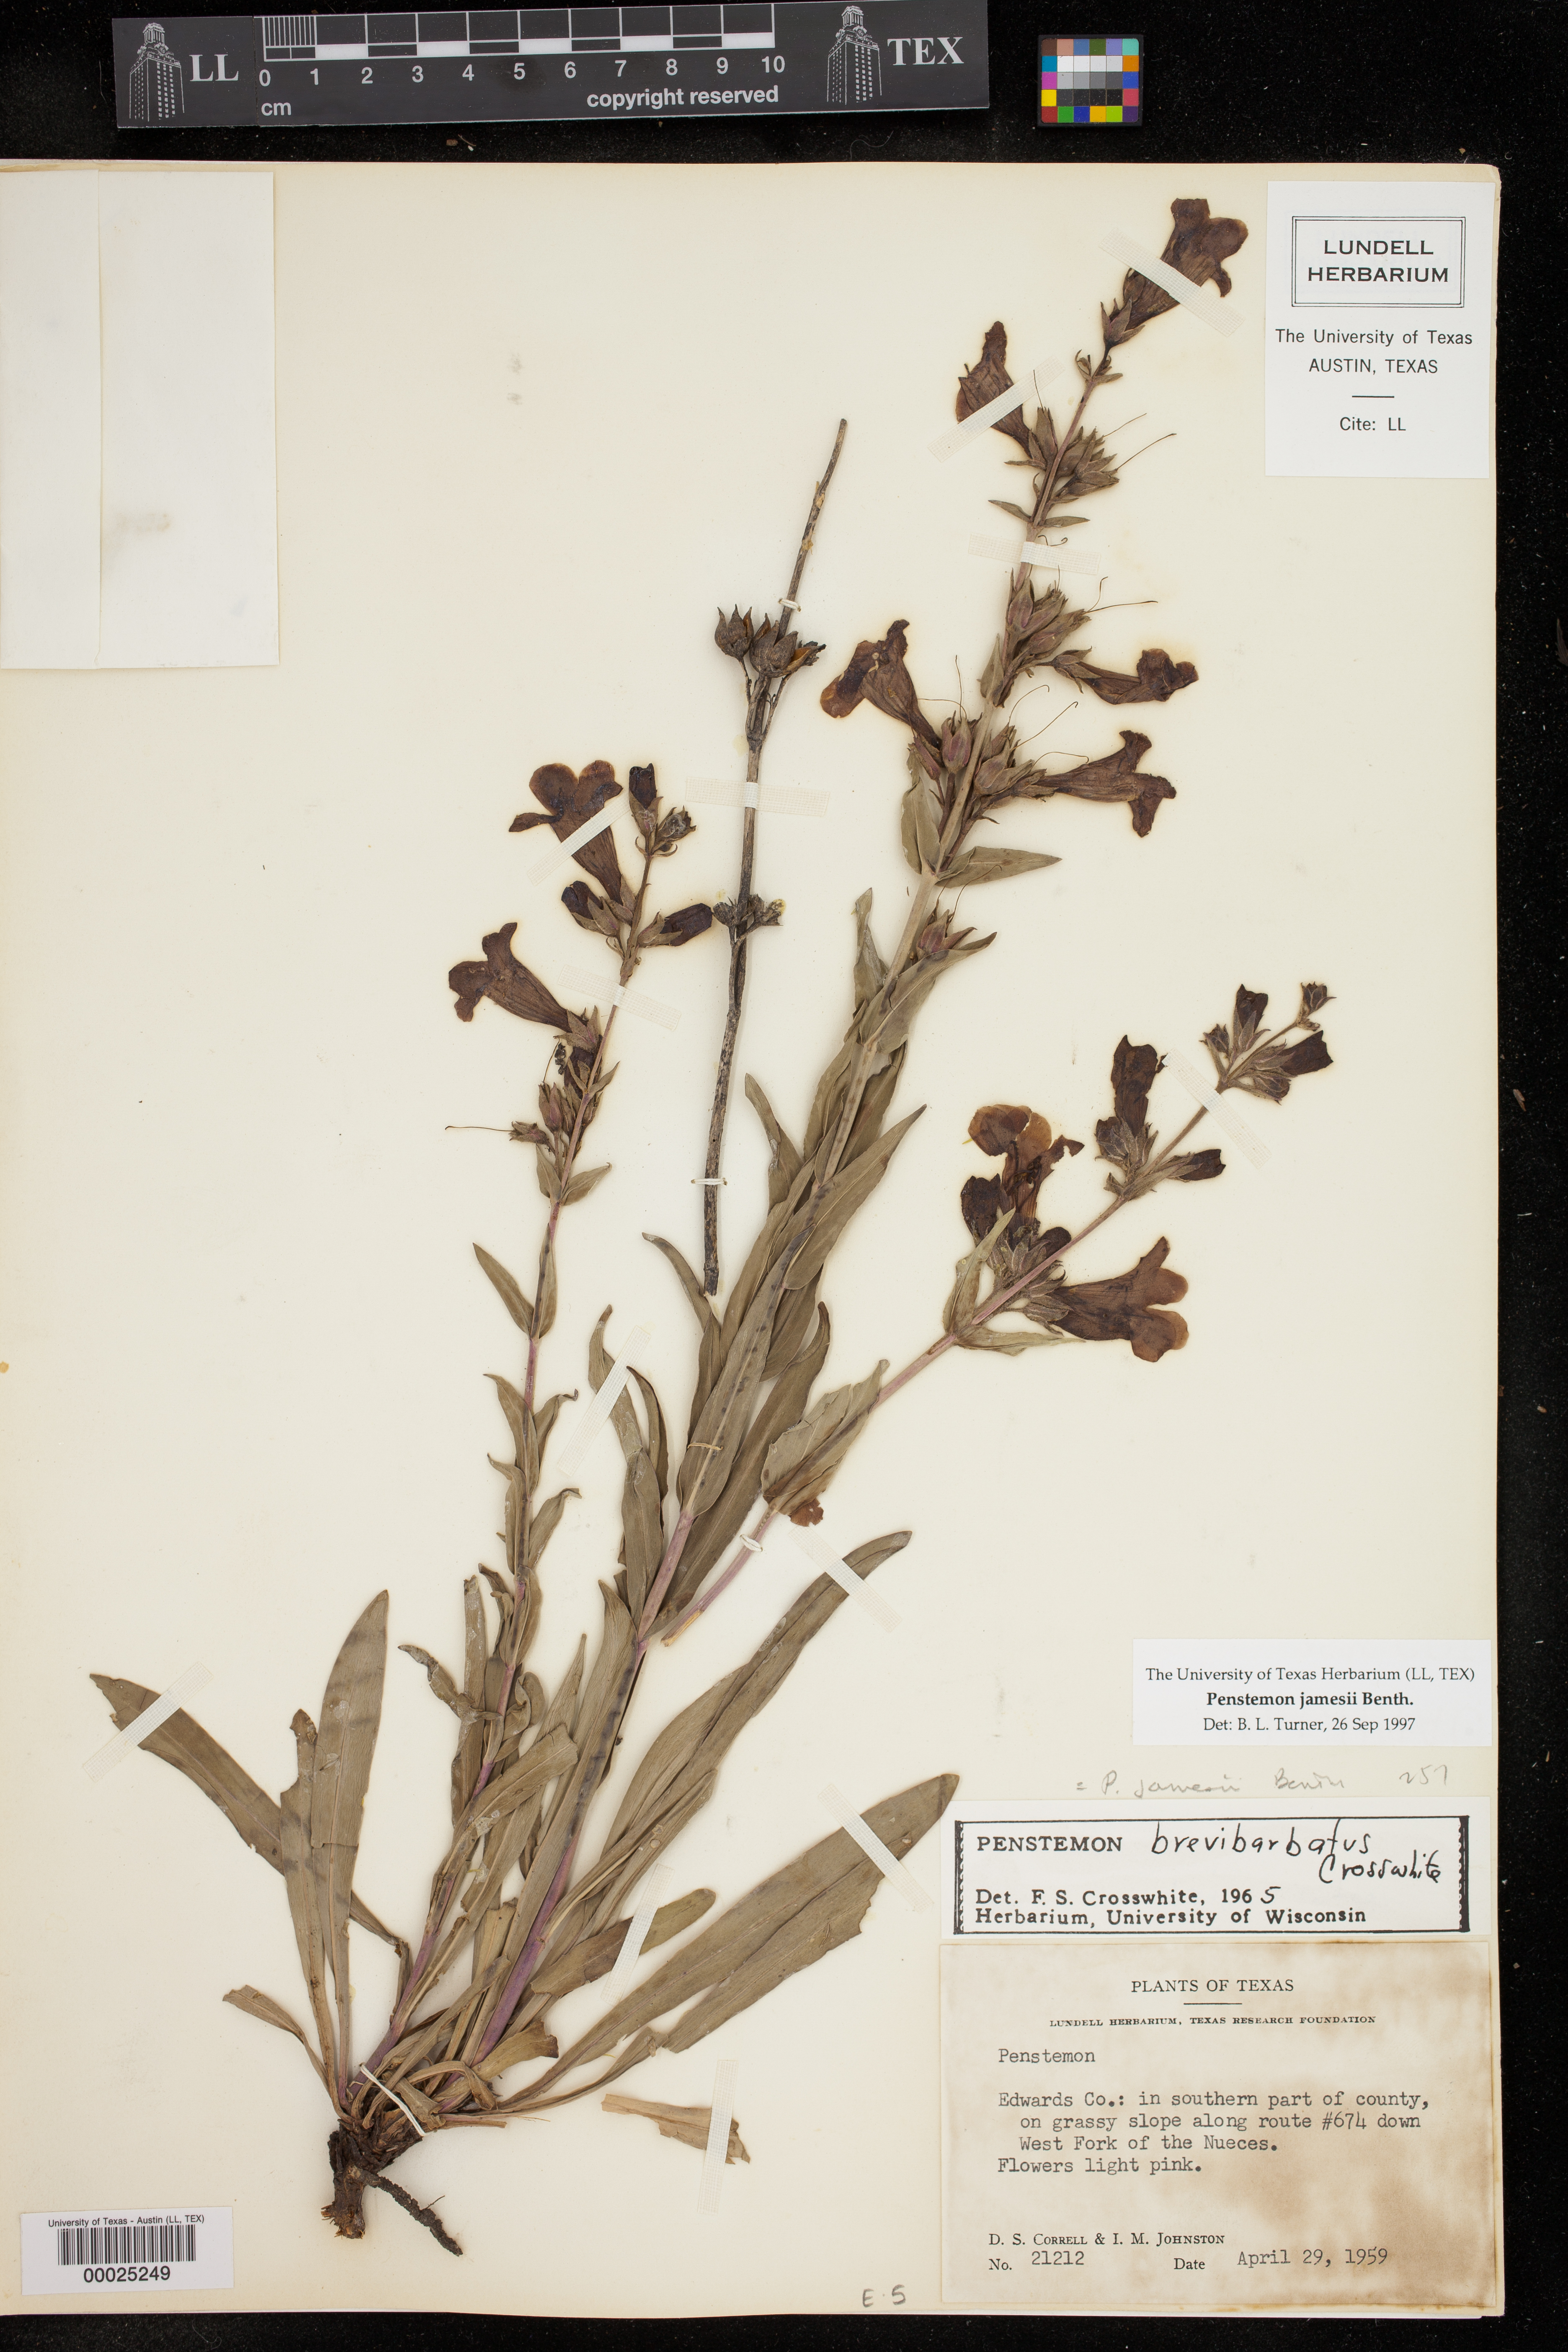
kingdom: Plantae
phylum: Tracheophyta
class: Magnoliopsida
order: Lamiales
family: Plantaginaceae
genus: Penstemon
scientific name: Penstemon jamesii
